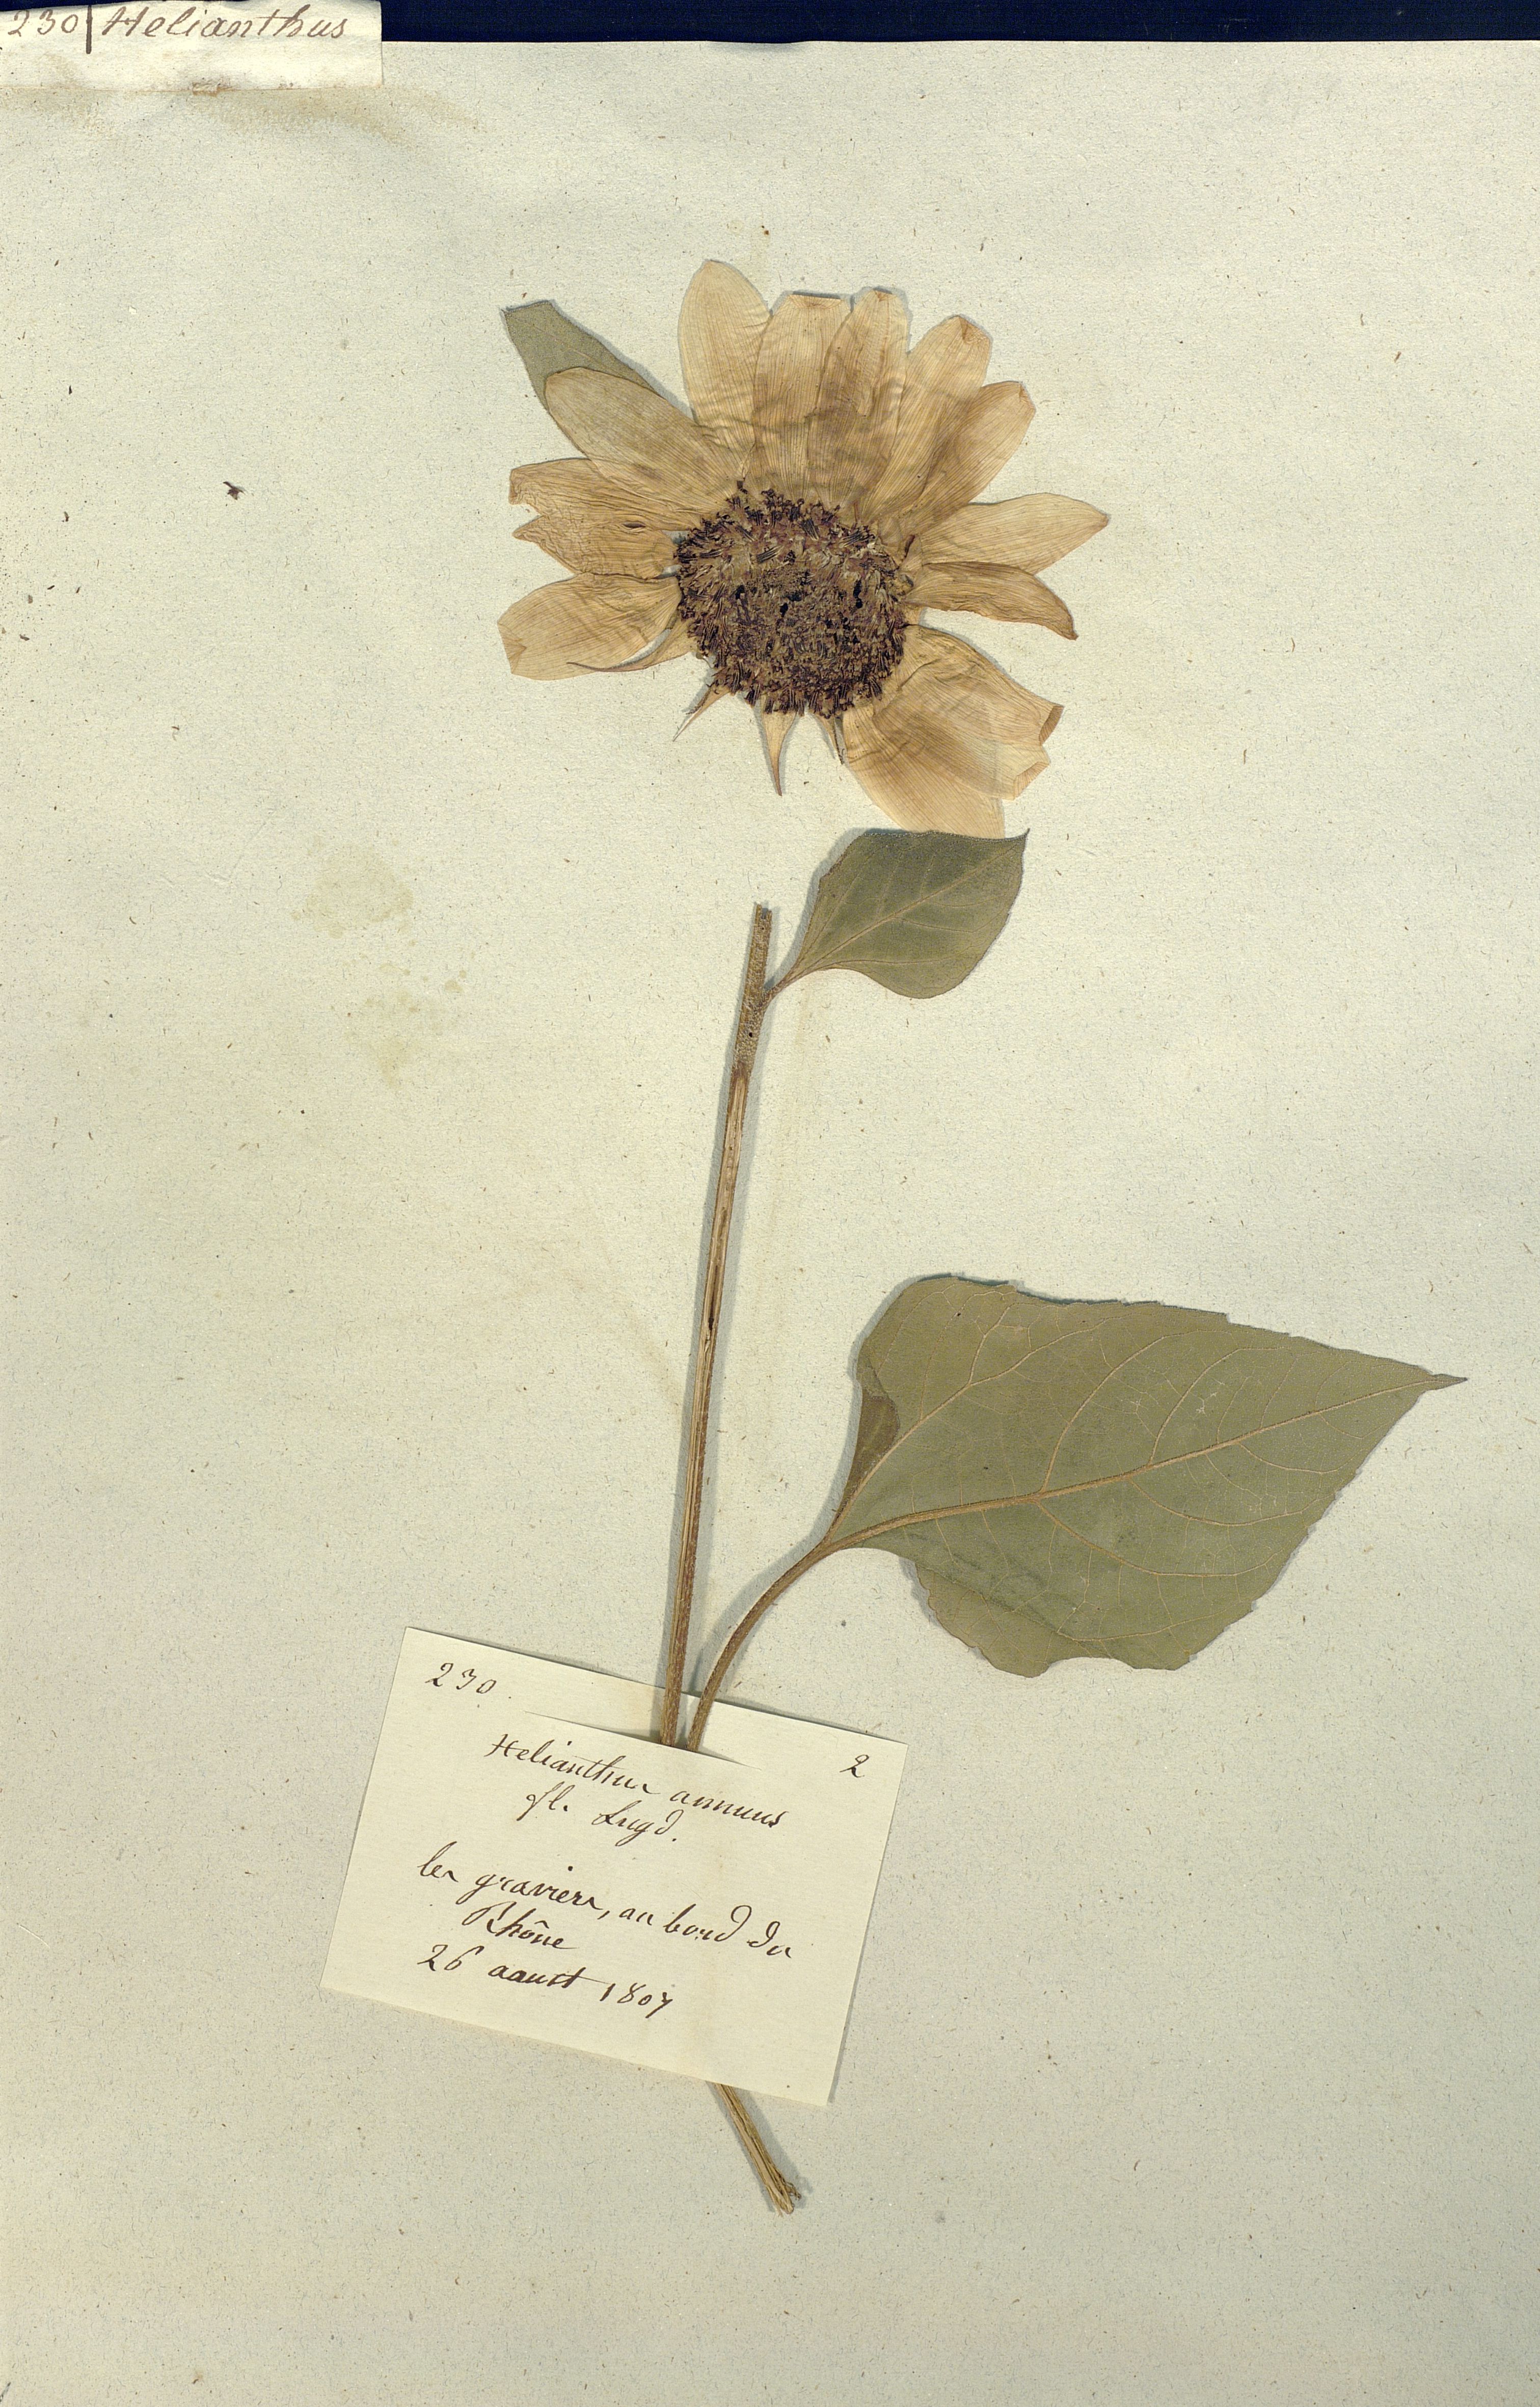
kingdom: Plantae
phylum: Tracheophyta
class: Magnoliopsida
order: Asterales
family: Asteraceae
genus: Helianthus
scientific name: Helianthus annuus
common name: Sunflower
